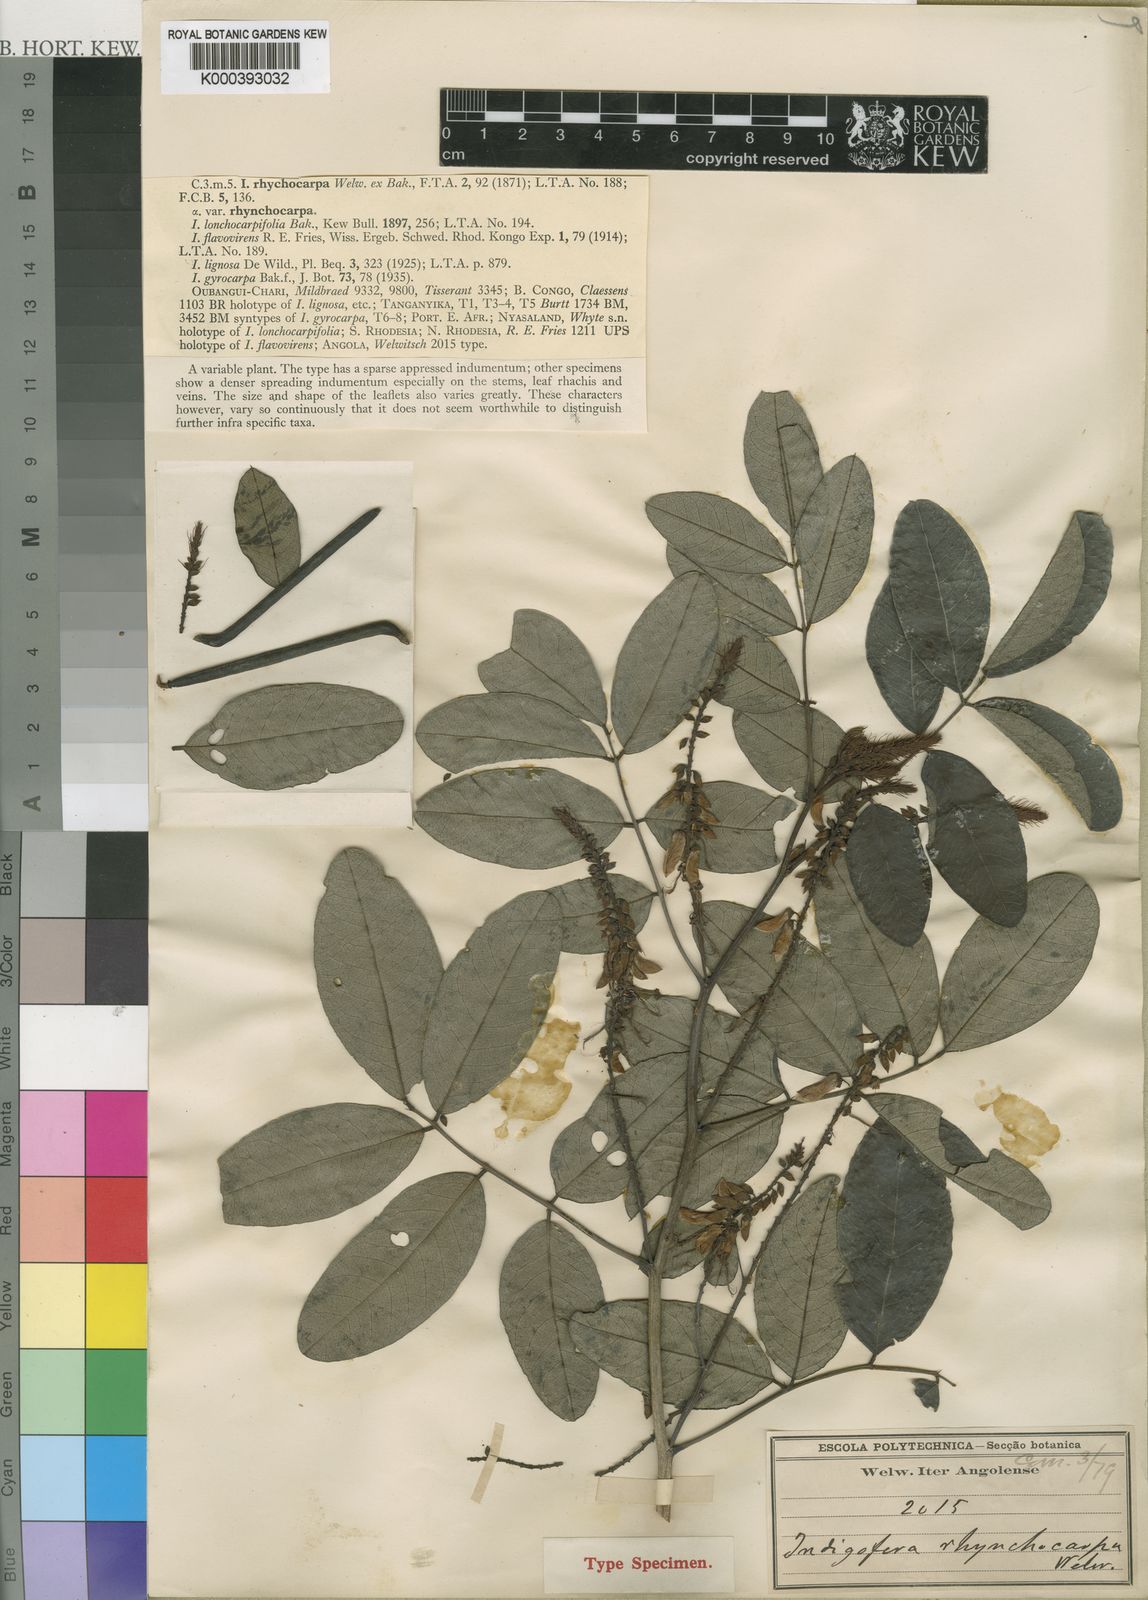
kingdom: Plantae
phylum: Tracheophyta
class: Magnoliopsida
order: Fabales
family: Fabaceae
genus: Indigofera
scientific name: Indigofera rhynchocarpa
